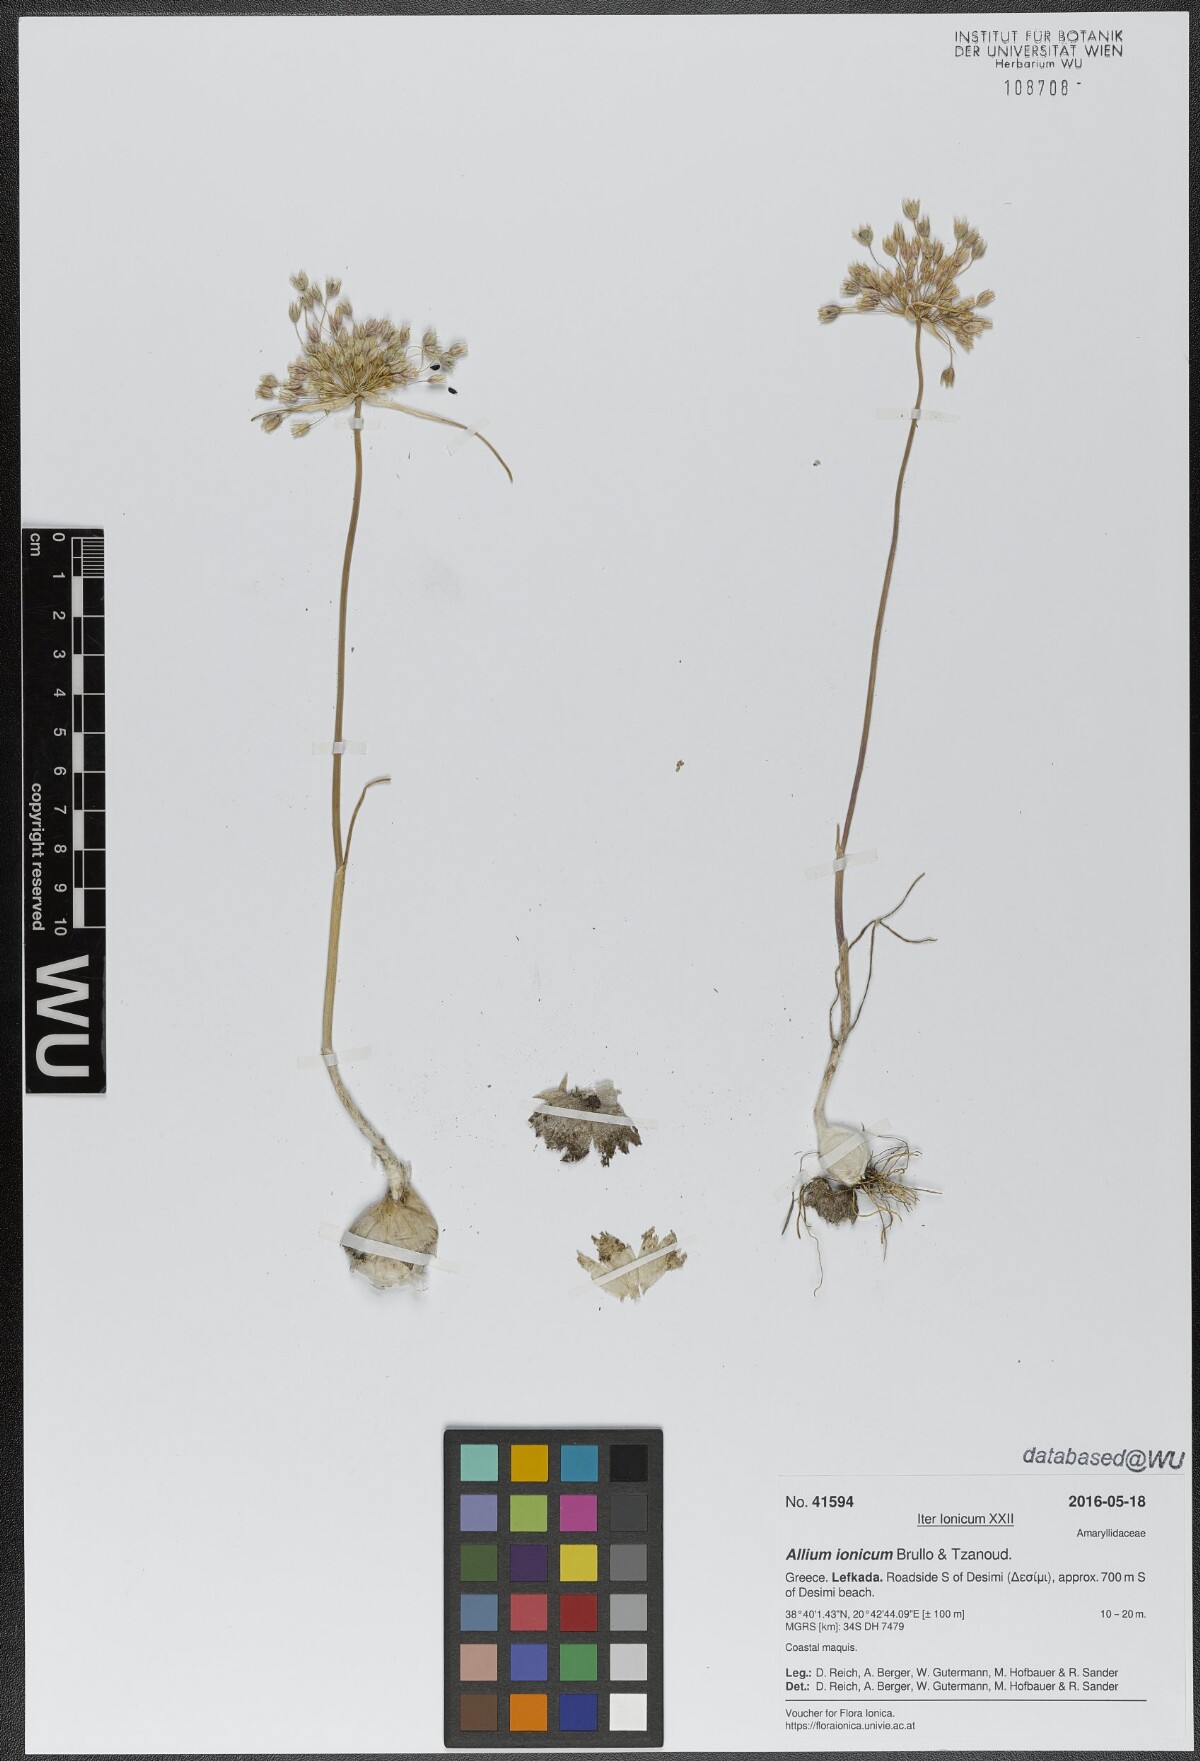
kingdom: Plantae
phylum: Tracheophyta
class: Liliopsida
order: Asparagales
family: Amaryllidaceae
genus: Allium
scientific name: Allium ionicum
